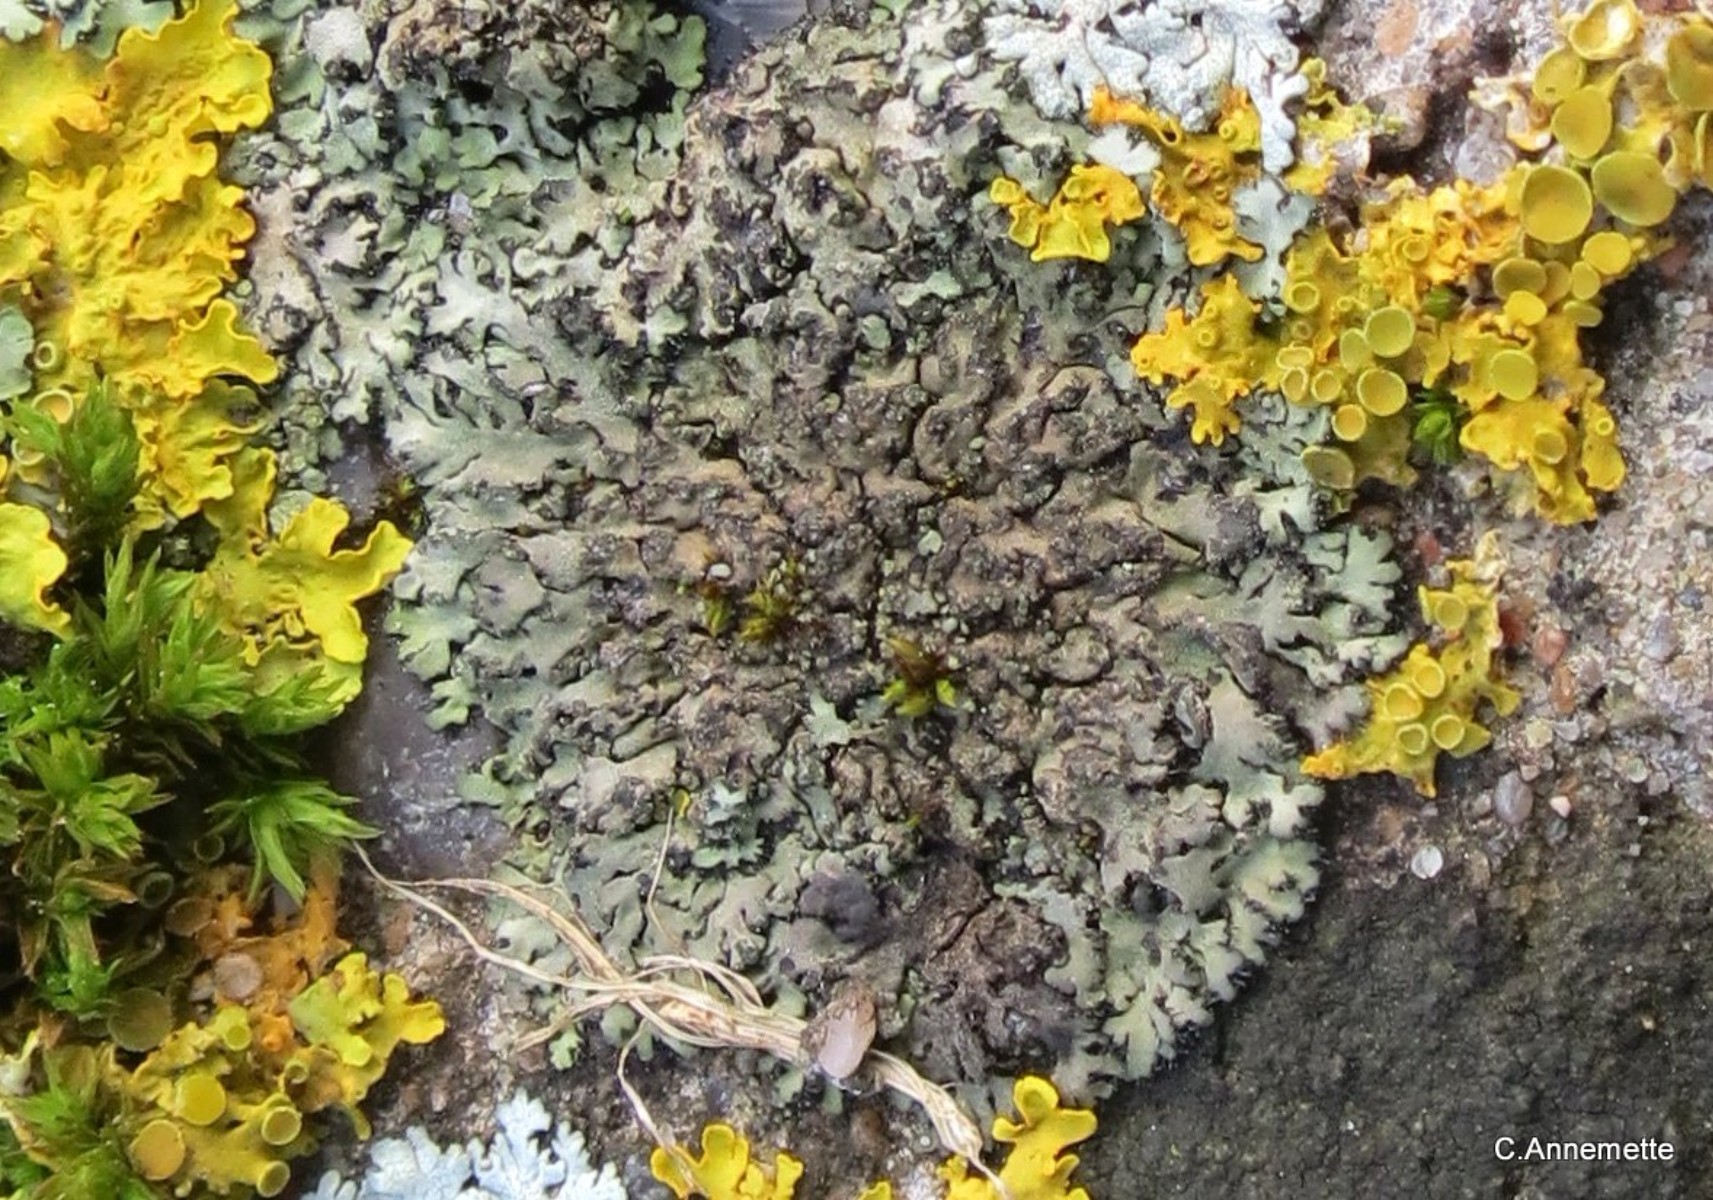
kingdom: Fungi
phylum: Ascomycota
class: Lecanoromycetes
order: Caliciales
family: Physciaceae
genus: Phaeophyscia
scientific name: Phaeophyscia orbicularis
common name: grågrøn rosetlav
